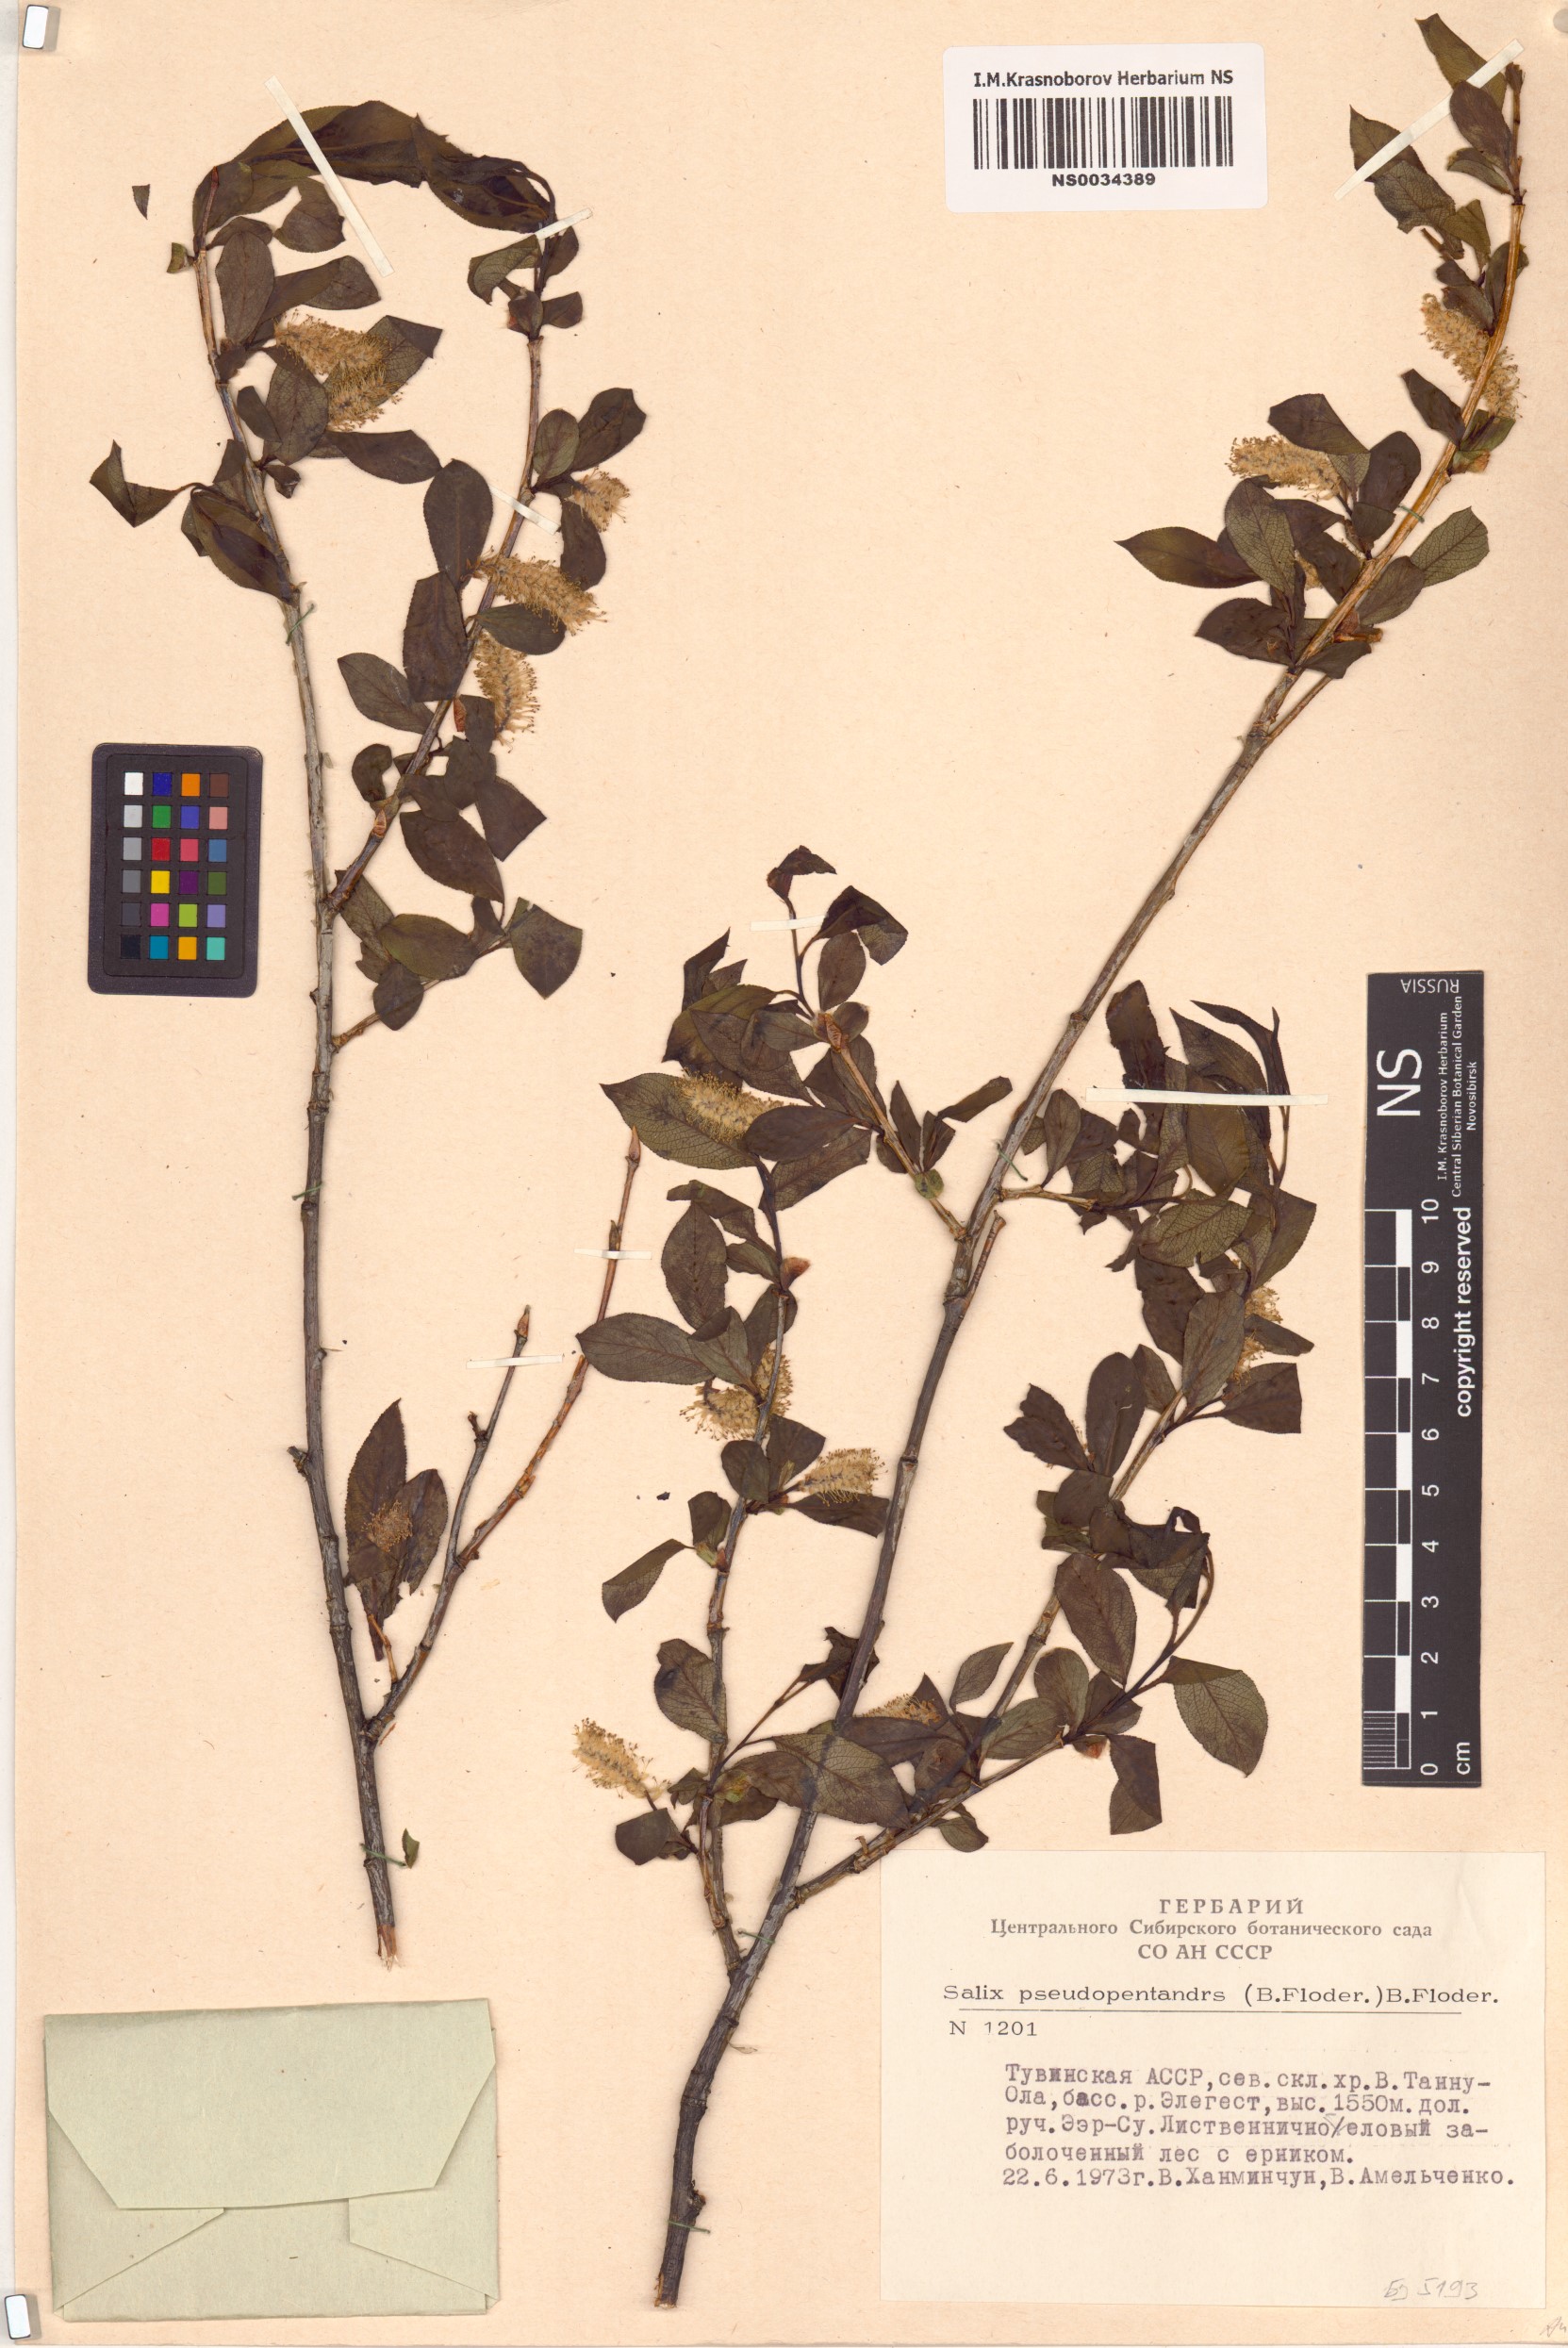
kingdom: Plantae
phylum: Tracheophyta
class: Magnoliopsida
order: Malpighiales
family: Salicaceae
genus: Salix
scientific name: Salix pseudopentandra
